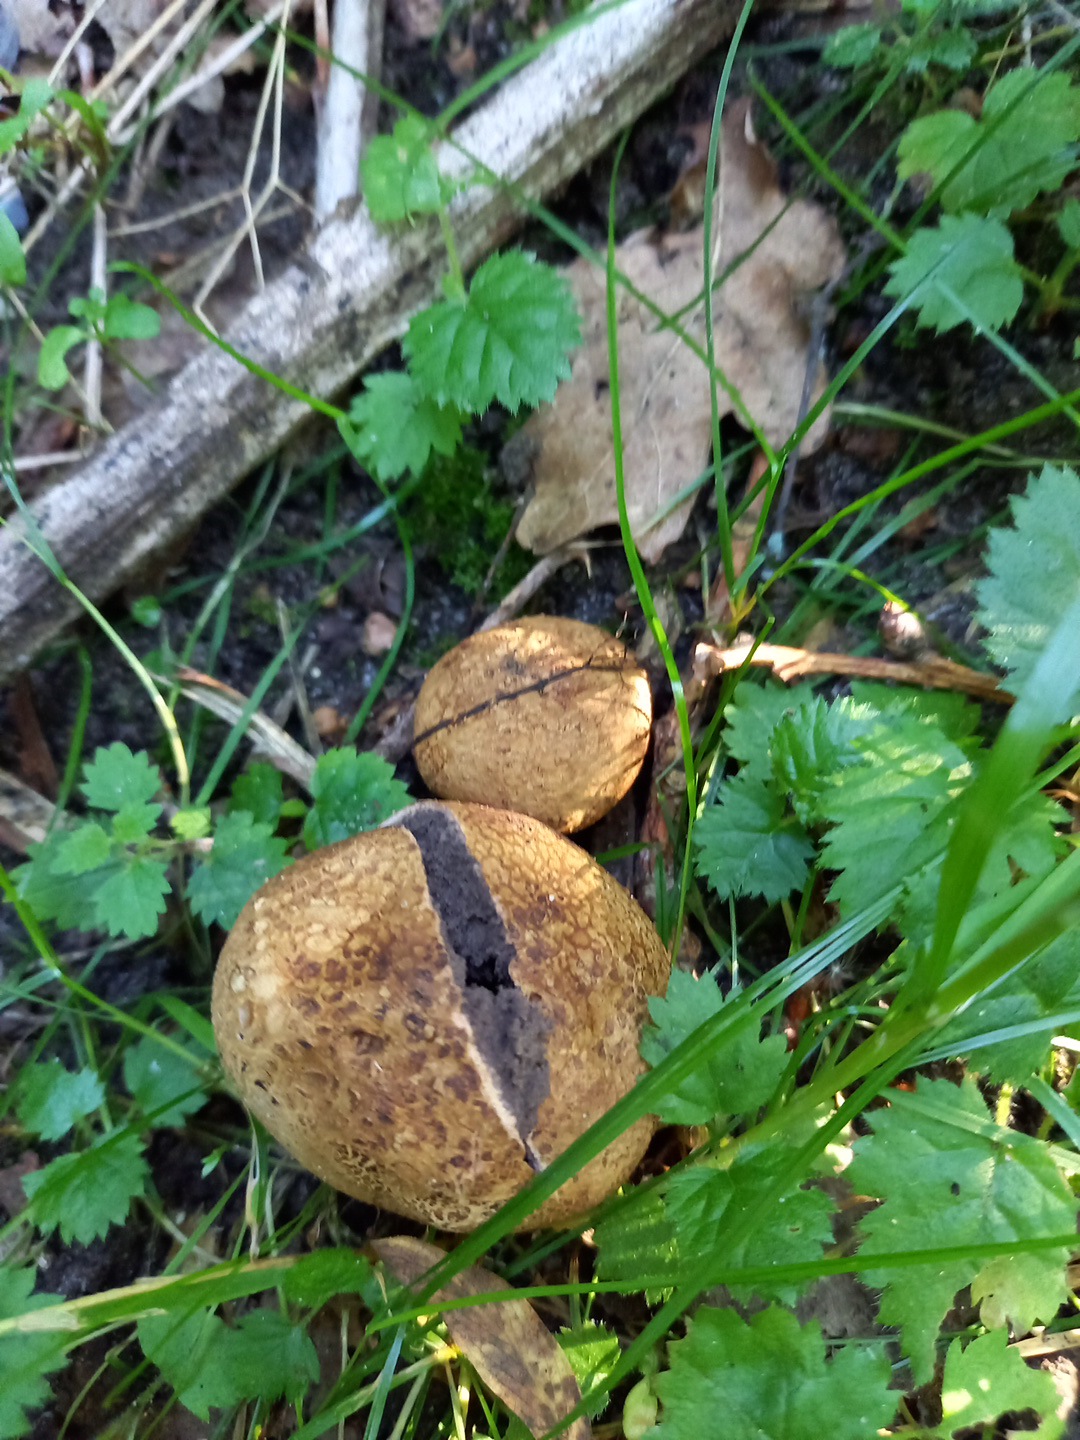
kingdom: Fungi
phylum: Basidiomycota
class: Agaricomycetes
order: Boletales
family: Sclerodermataceae
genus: Scleroderma
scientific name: Scleroderma verrucosum
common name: stilket bruskbold
